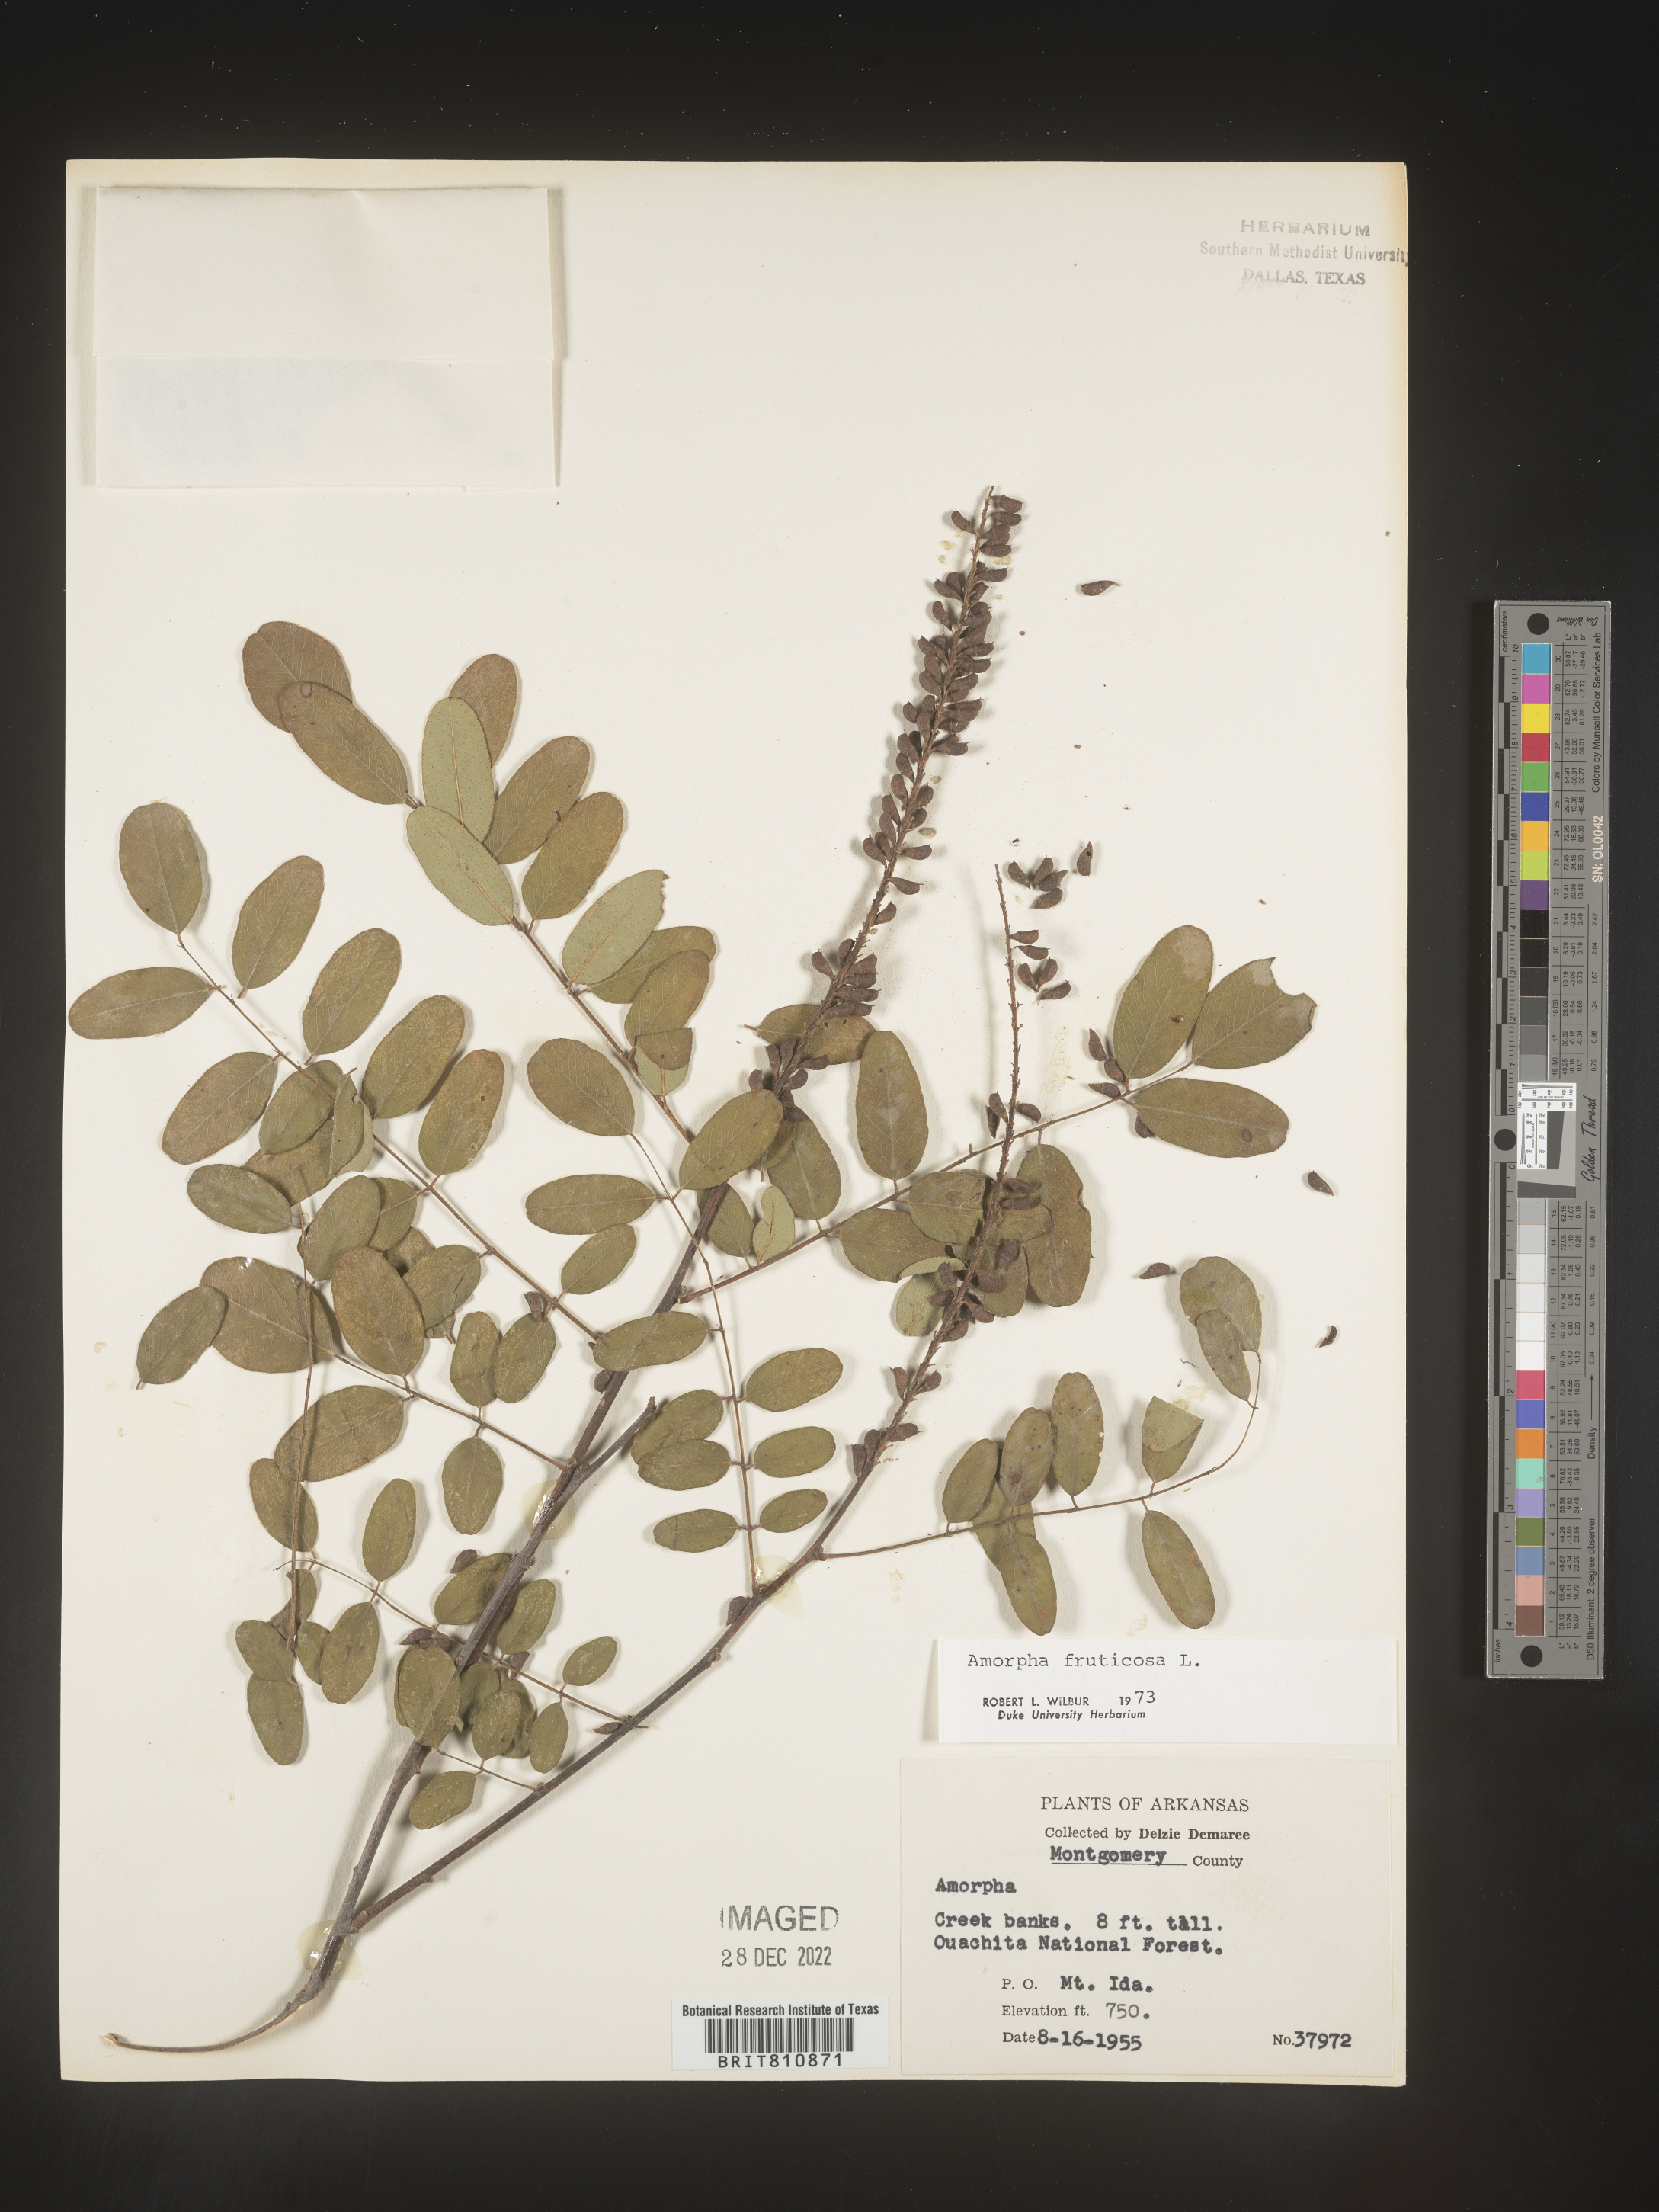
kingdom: Plantae
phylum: Tracheophyta
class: Magnoliopsida
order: Fabales
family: Fabaceae
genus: Amorpha
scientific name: Amorpha fruticosa
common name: False indigo
